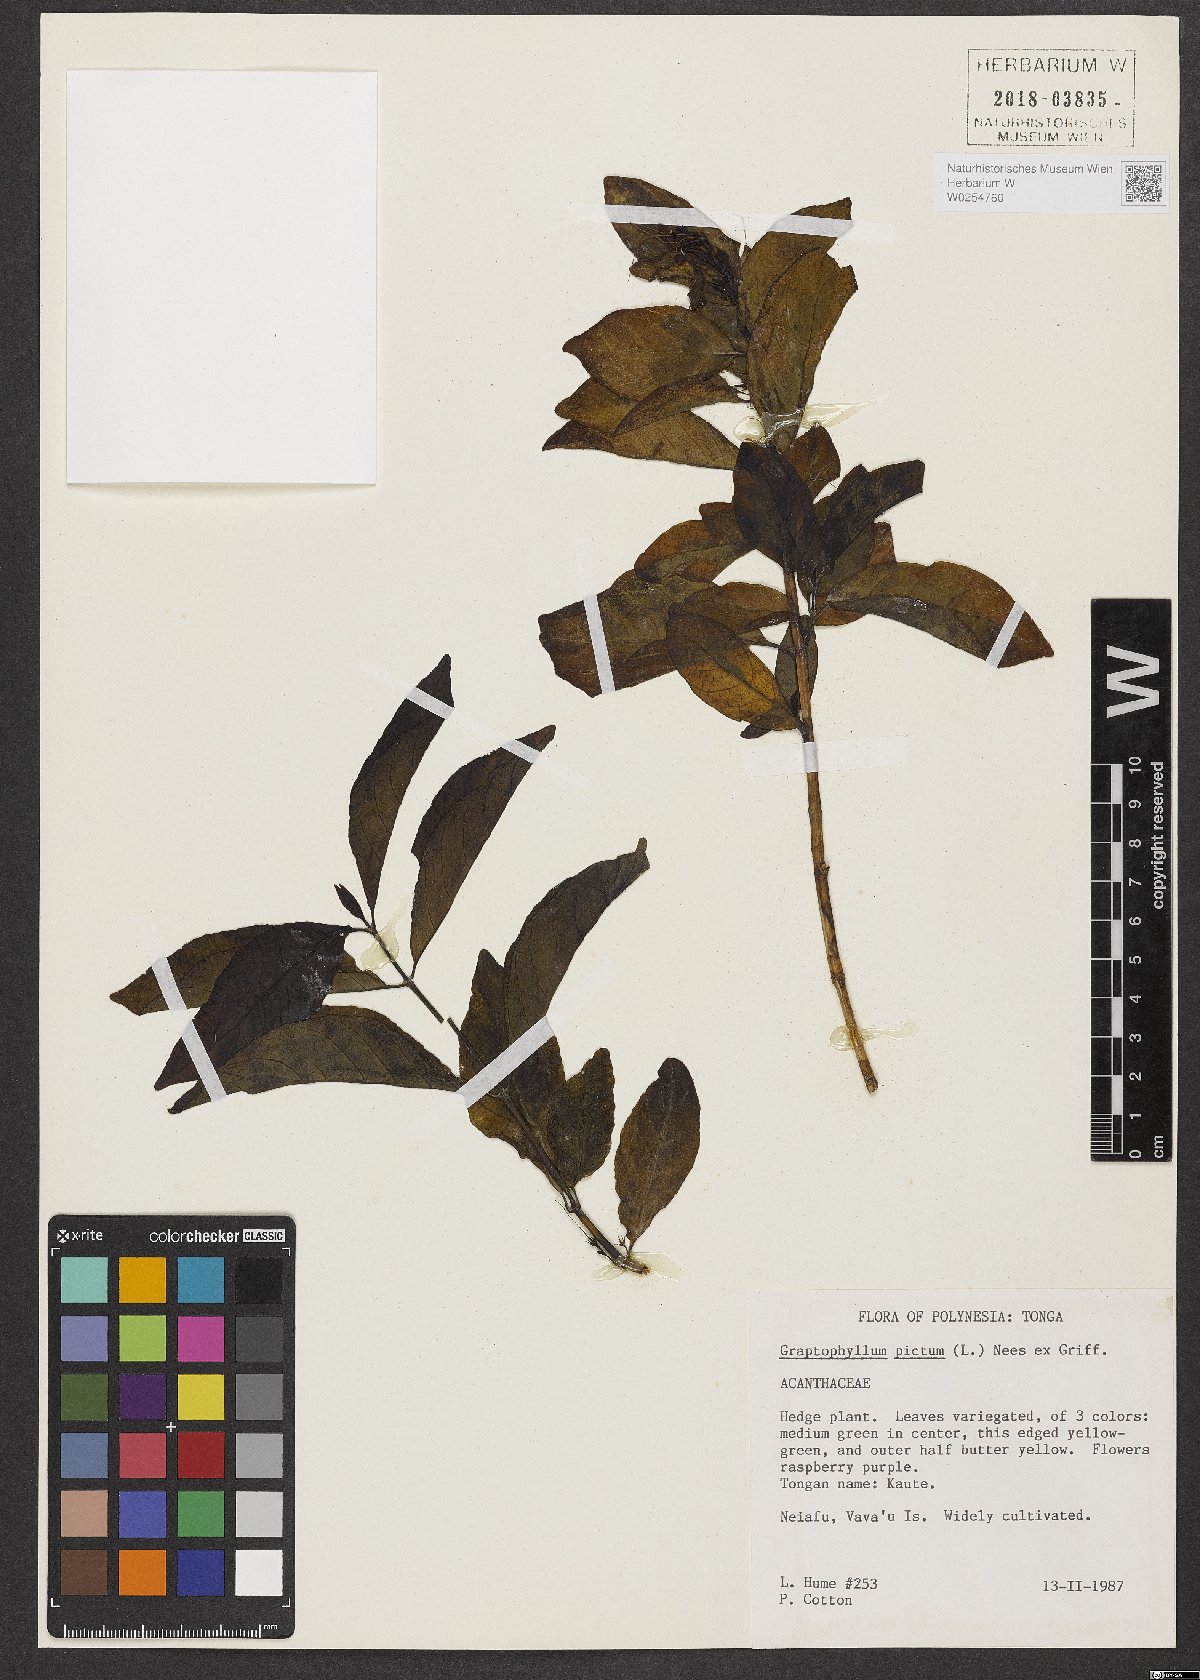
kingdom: Plantae
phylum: Tracheophyta
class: Magnoliopsida
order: Lamiales
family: Acanthaceae
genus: Graptophyllum
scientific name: Graptophyllum pictum
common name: Caricature-plant
